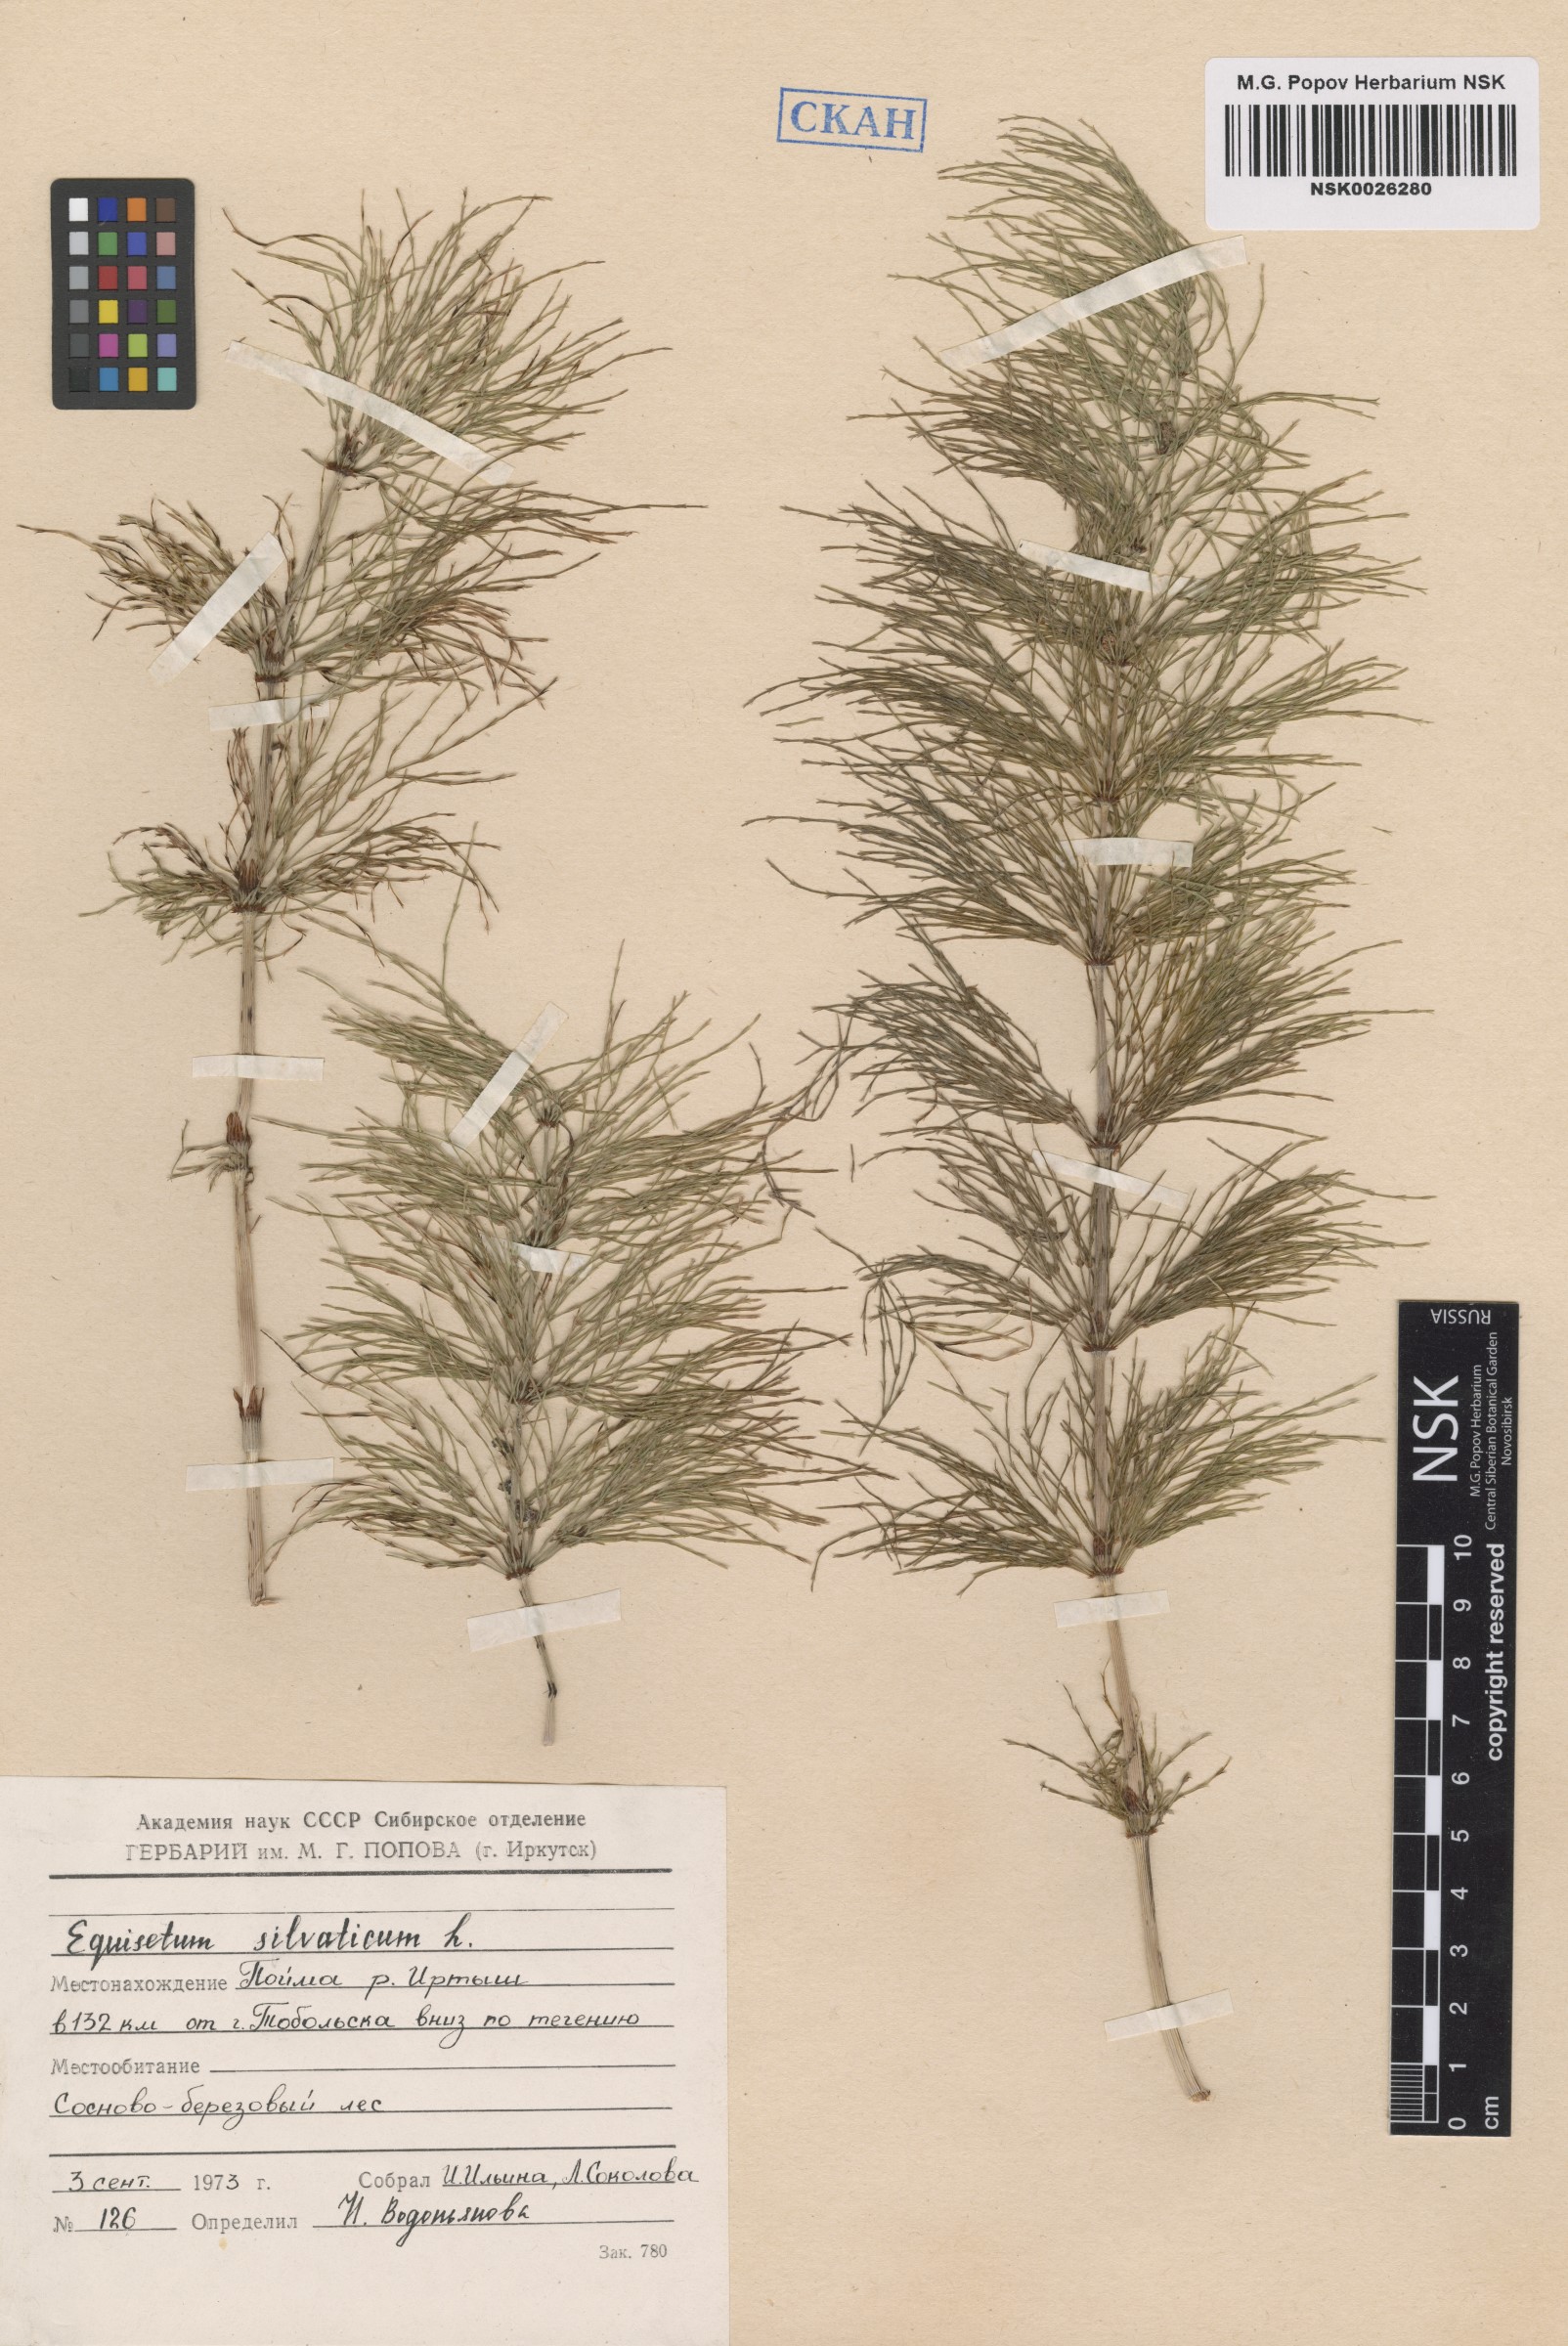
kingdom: Plantae
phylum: Tracheophyta
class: Polypodiopsida
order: Equisetales
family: Equisetaceae
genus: Equisetum
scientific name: Equisetum sylvaticum
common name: Wood horsetail
